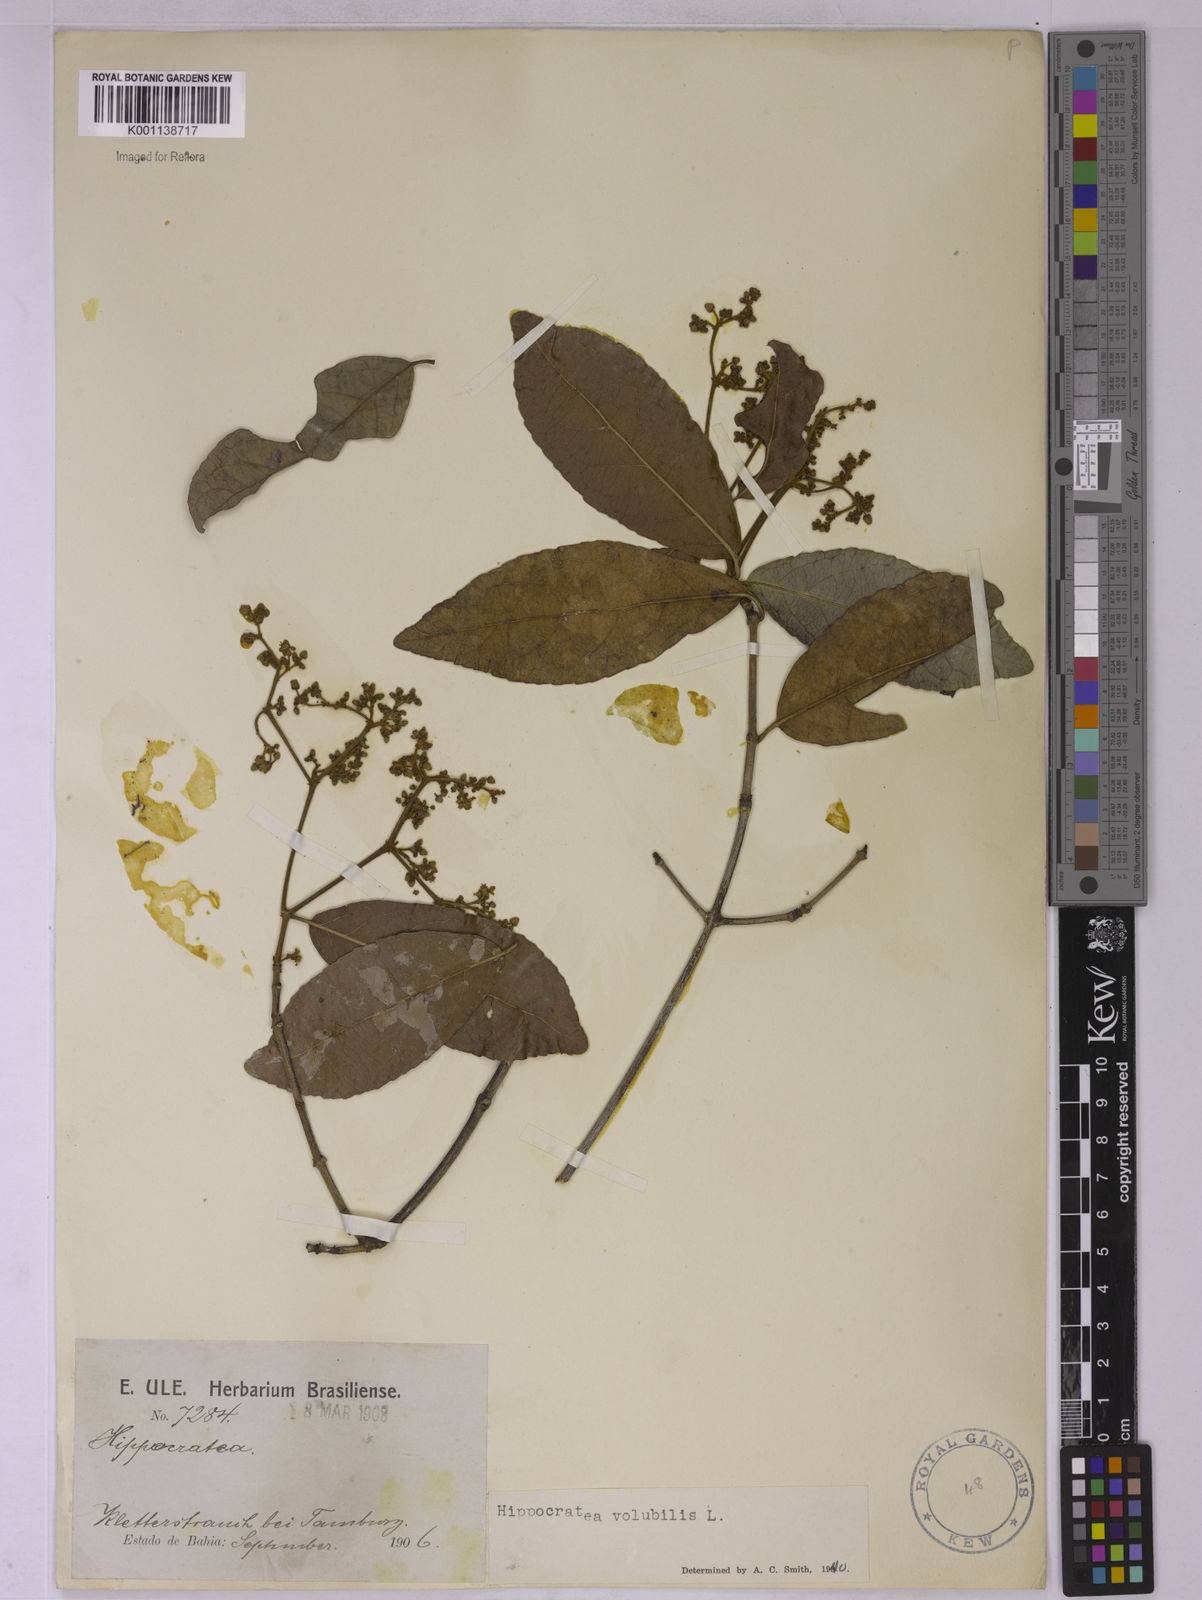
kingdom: Plantae
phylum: Tracheophyta
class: Magnoliopsida
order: Celastrales
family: Celastraceae
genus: Hippocratea
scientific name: Hippocratea volubilis
